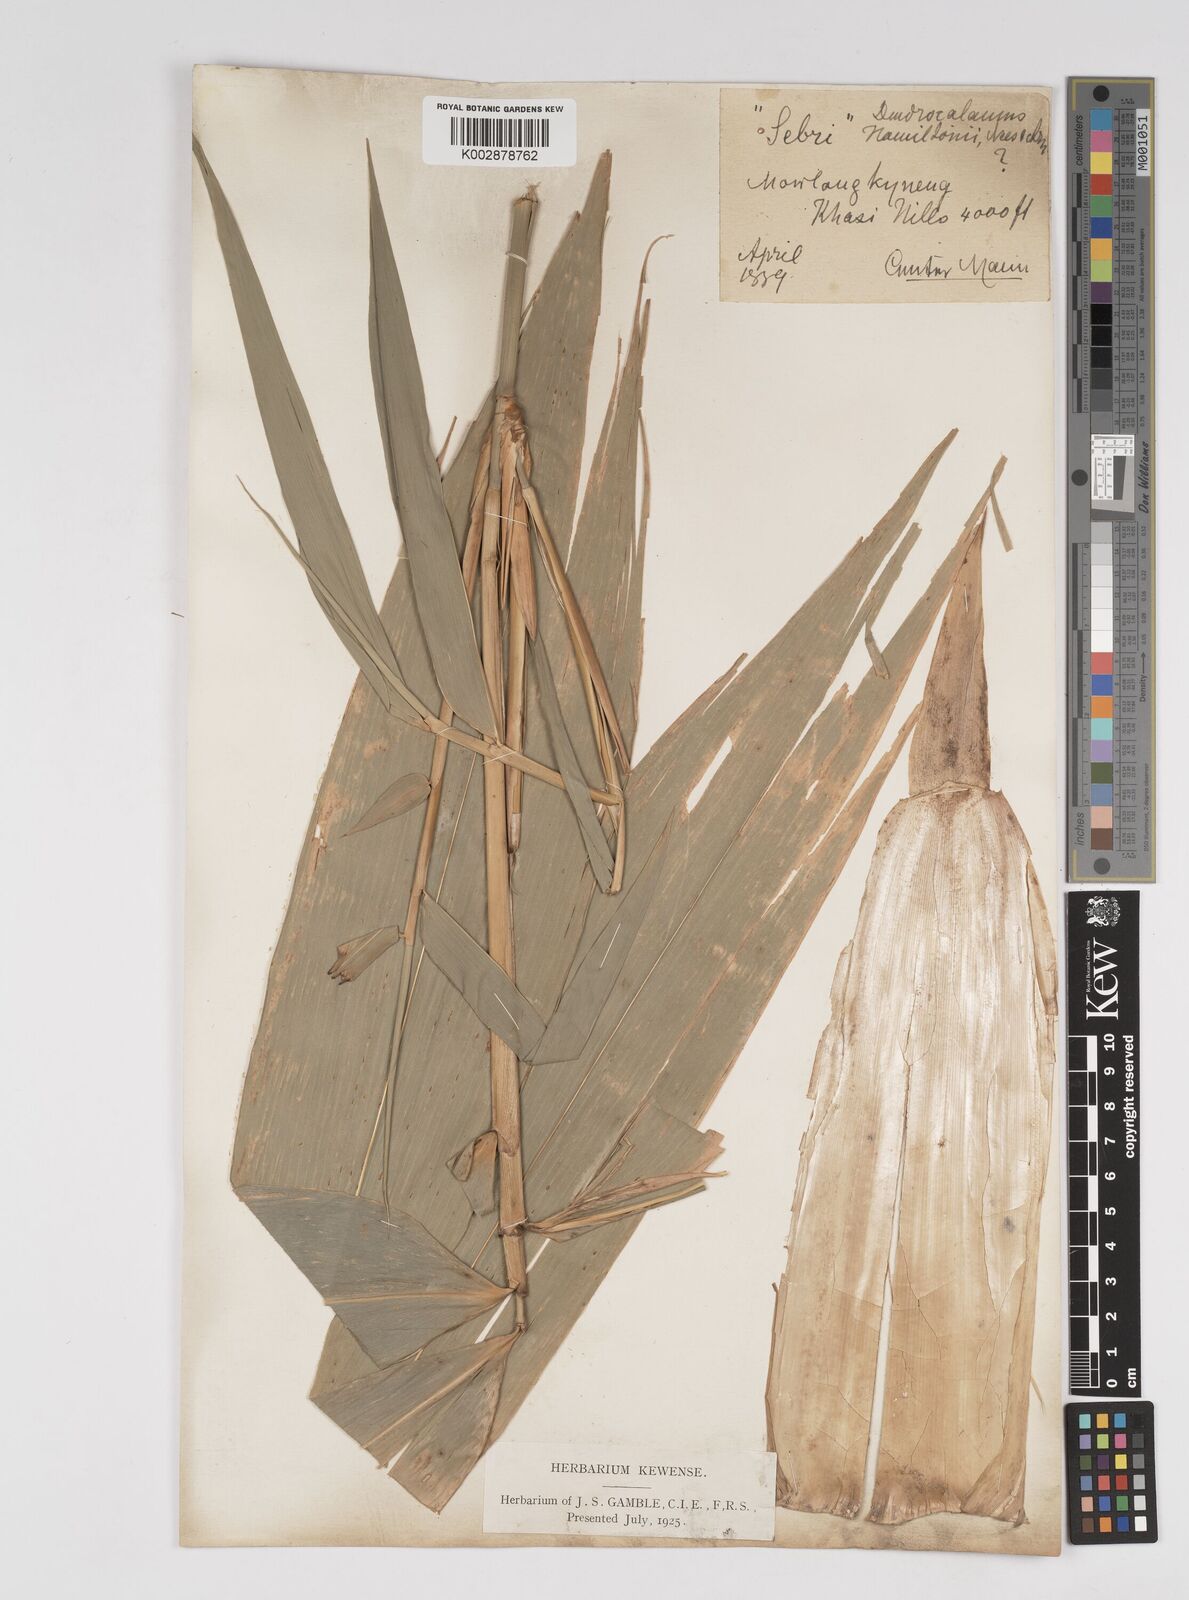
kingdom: Plantae
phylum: Tracheophyta
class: Liliopsida
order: Poales
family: Poaceae
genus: Dendrocalamus
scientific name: Dendrocalamus hamiltonii
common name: Tama bamboo
